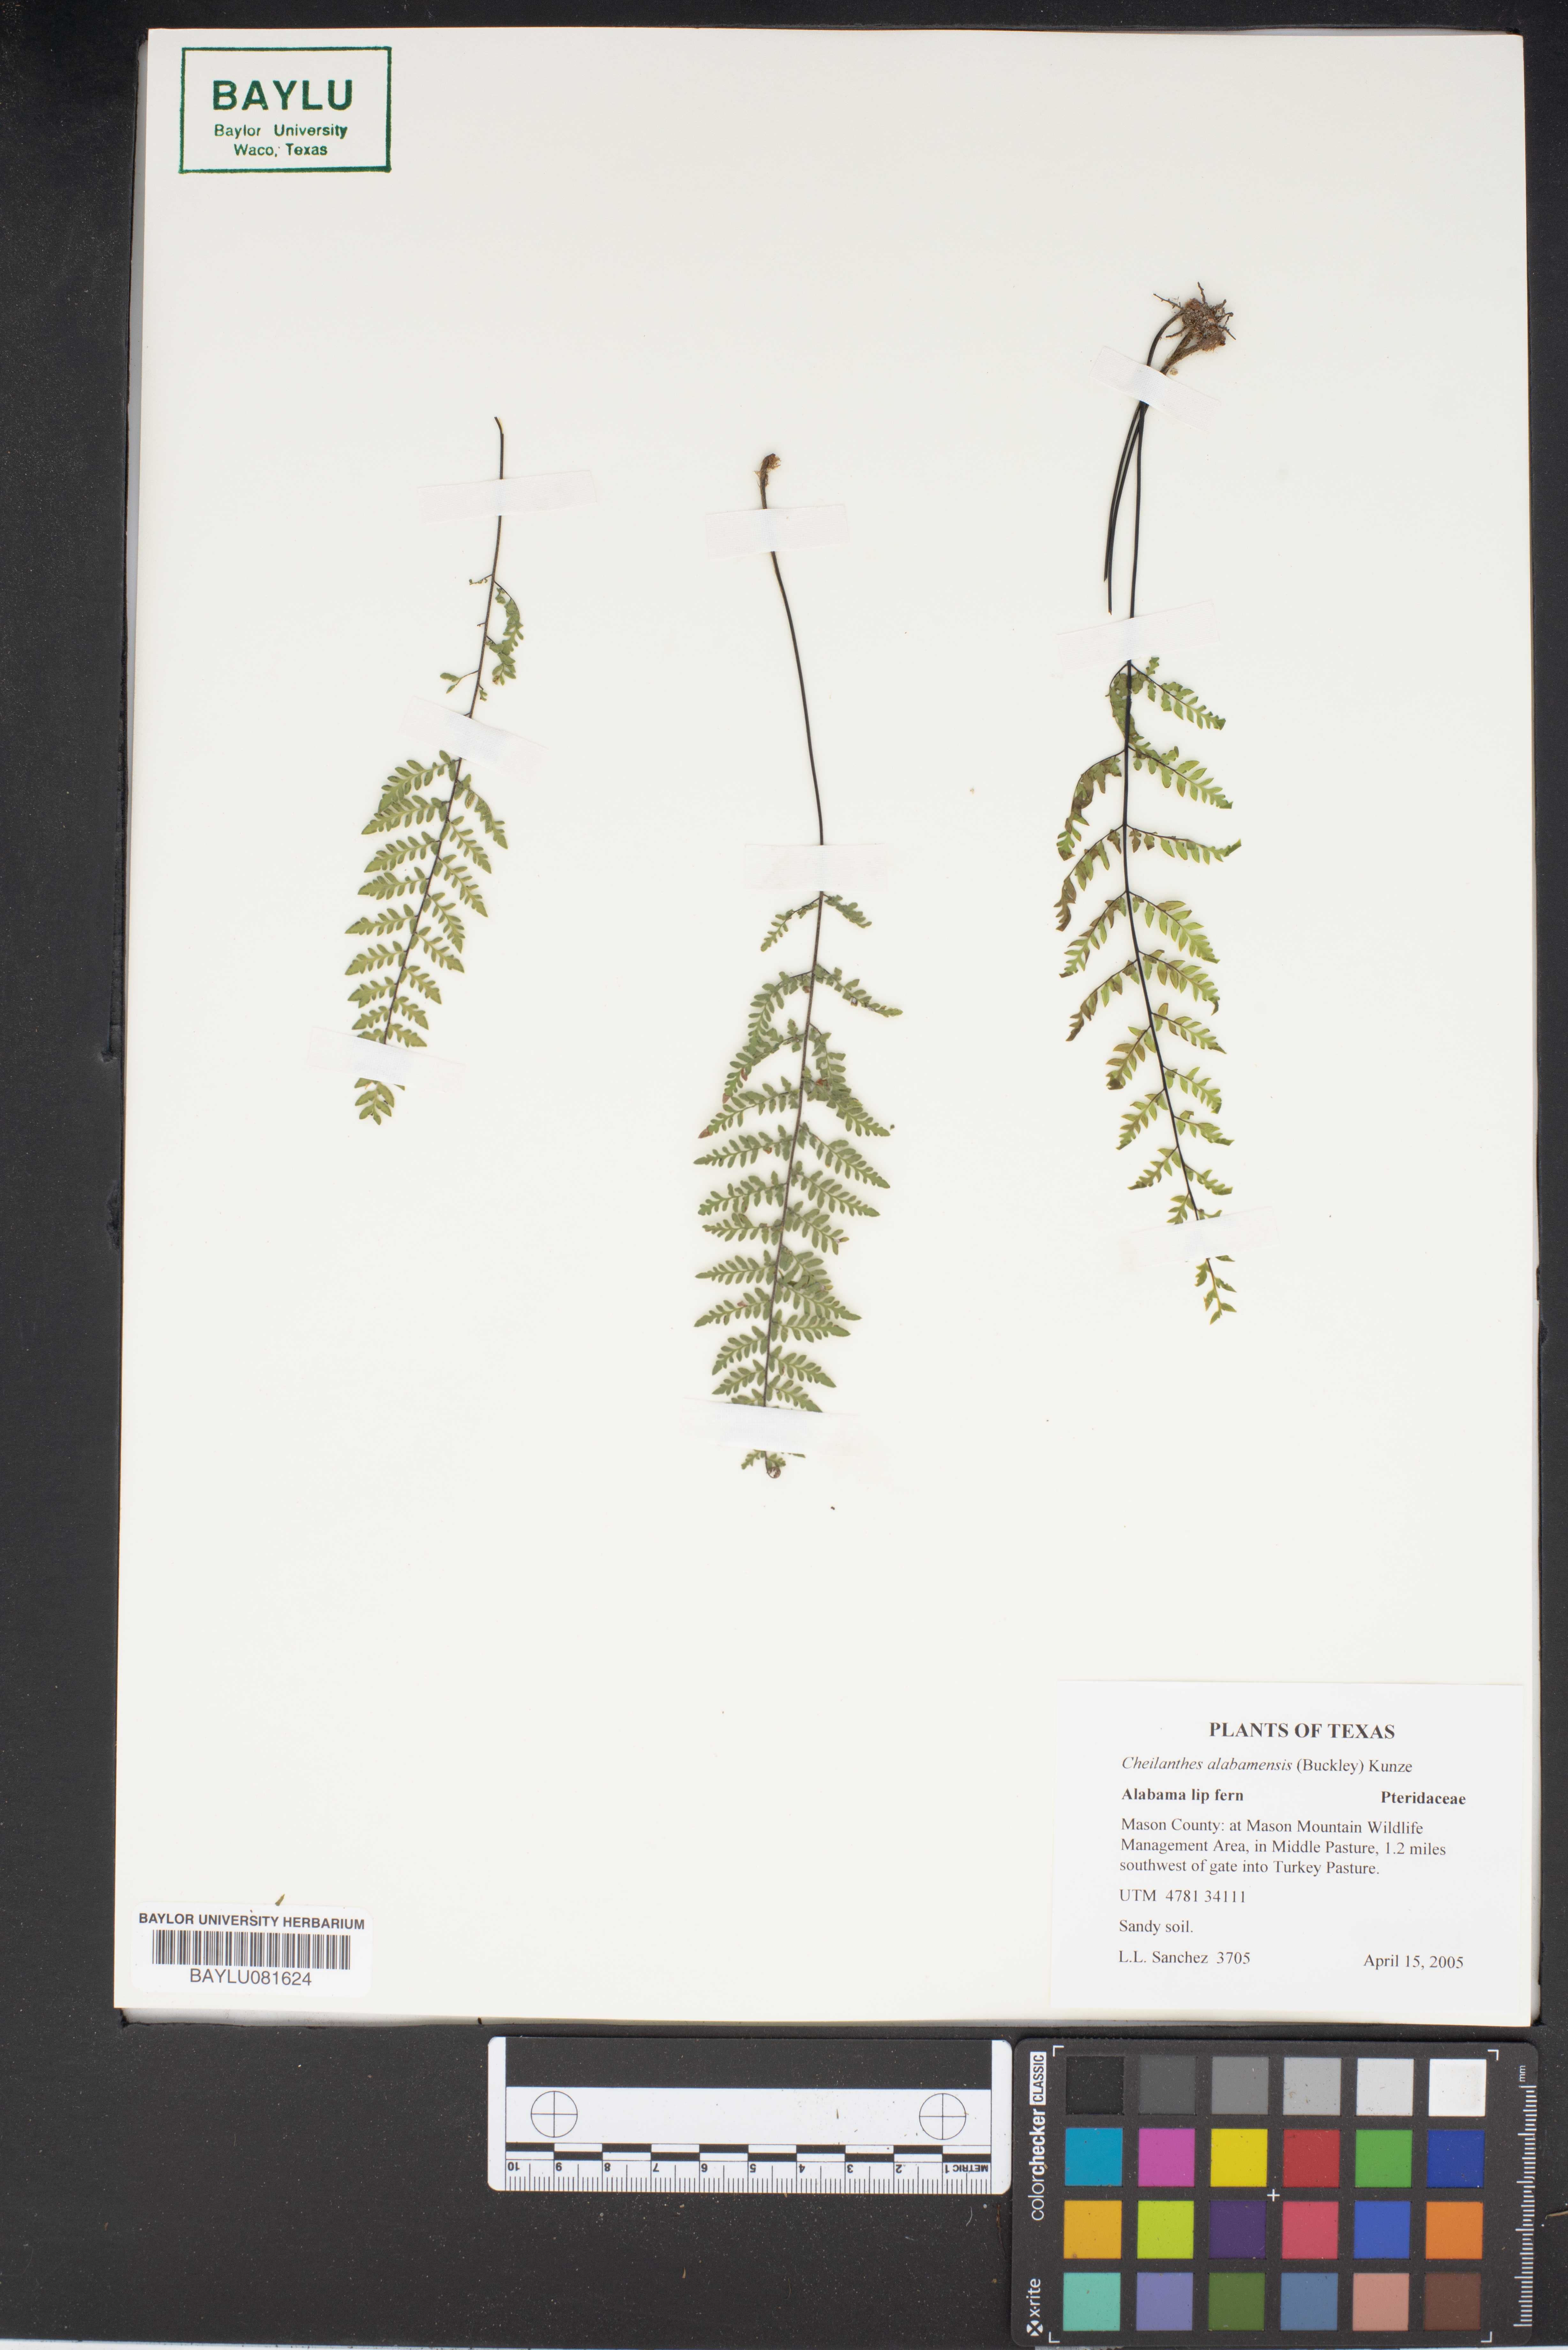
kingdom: Plantae
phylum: Tracheophyta
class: Polypodiopsida
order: Polypodiales
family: Pteridaceae
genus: Myriopteris
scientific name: Myriopteris alabamensis
